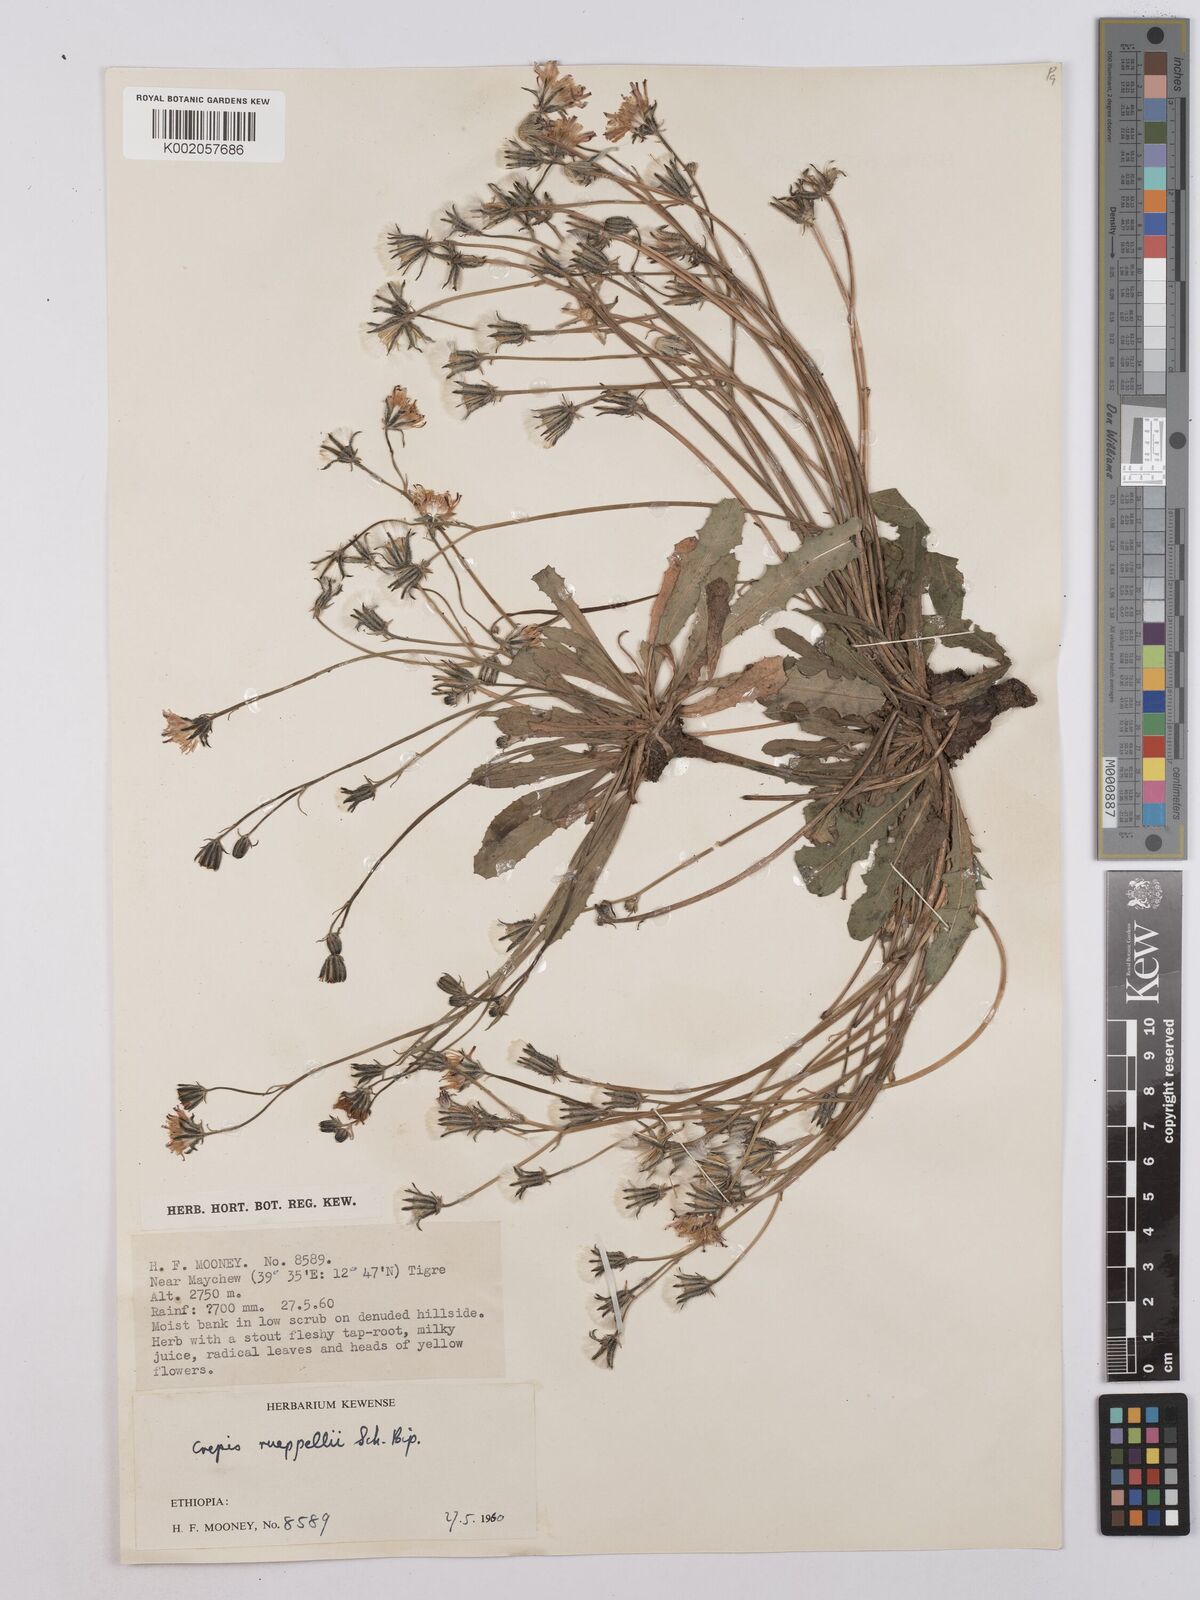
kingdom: Plantae
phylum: Tracheophyta
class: Magnoliopsida
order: Asterales
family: Asteraceae
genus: Crepis
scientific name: Crepis rueppellii
